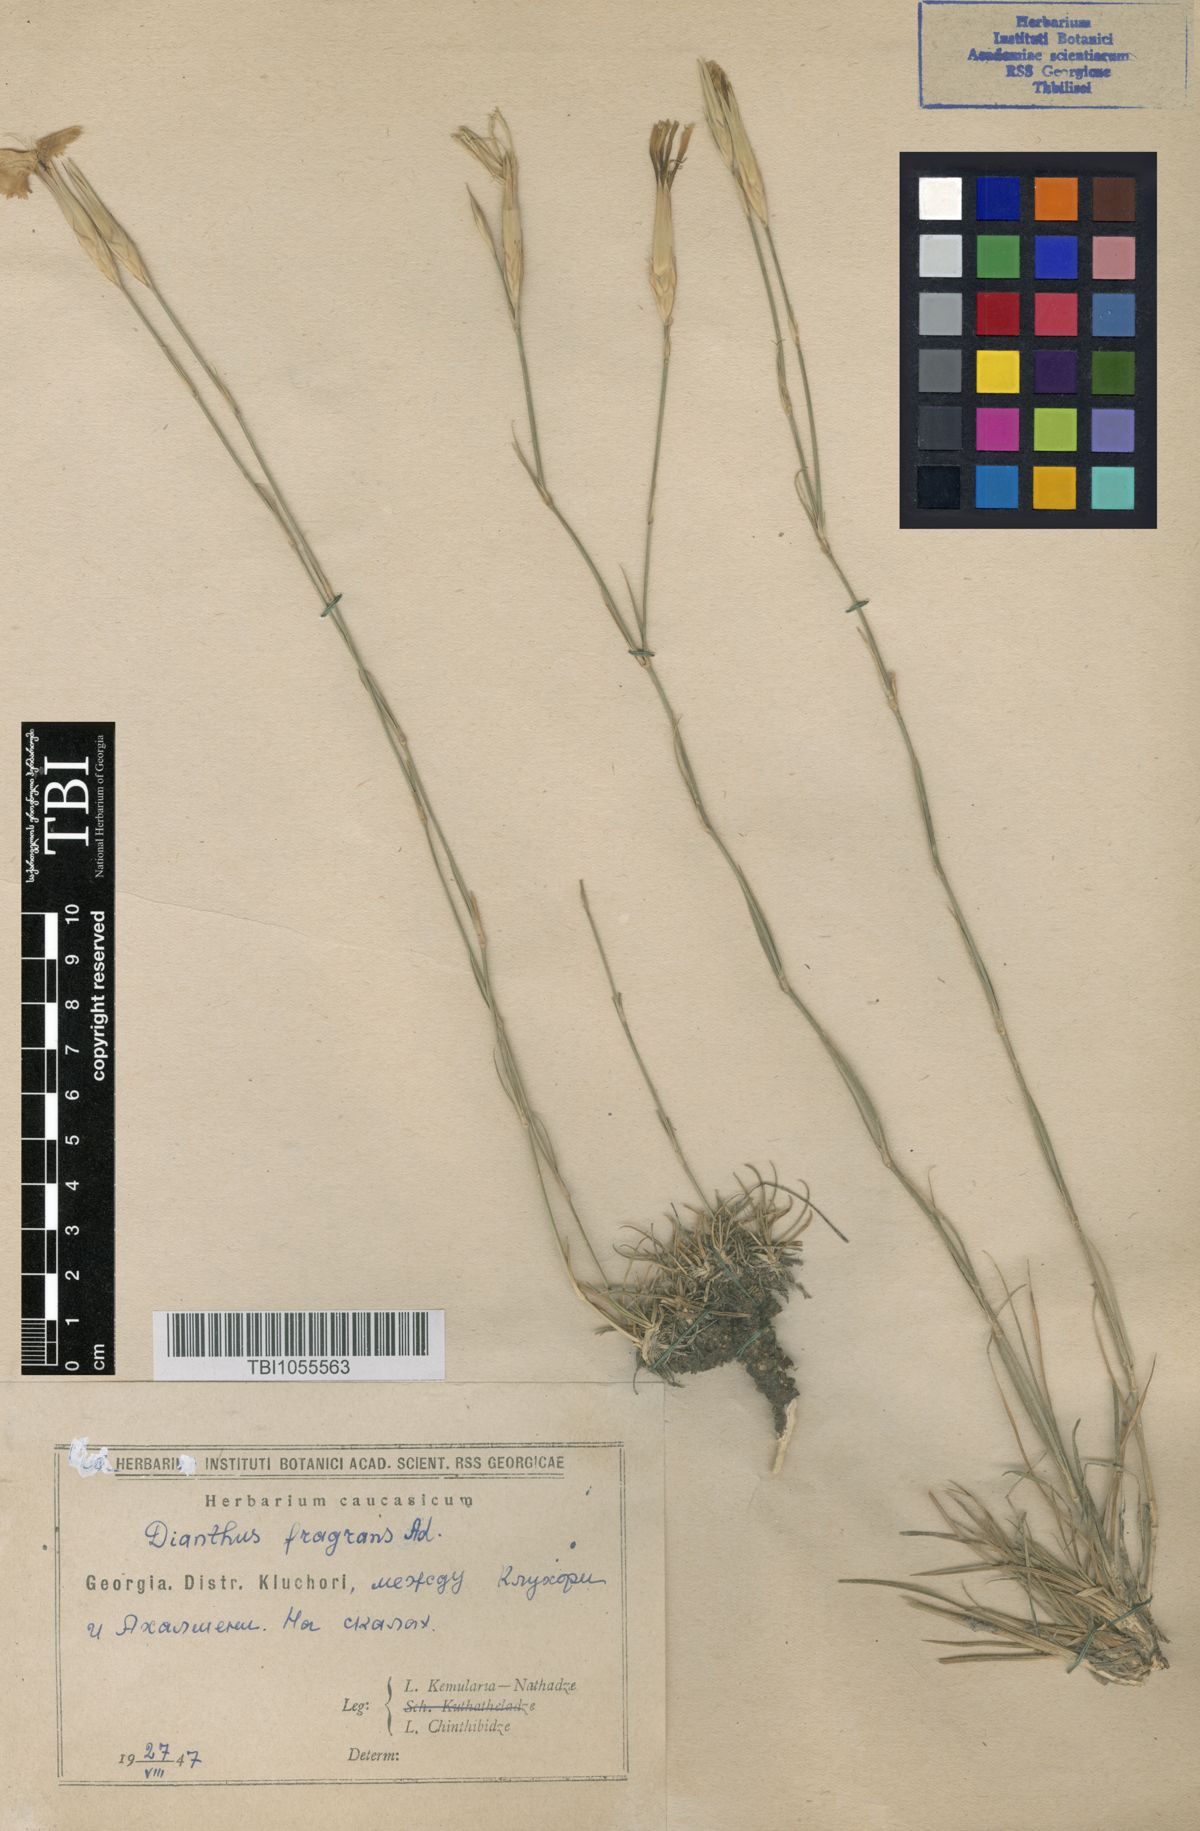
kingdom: Plantae
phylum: Tracheophyta
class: Magnoliopsida
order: Caryophyllales
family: Caryophyllaceae
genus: Dianthus
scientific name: Dianthus
